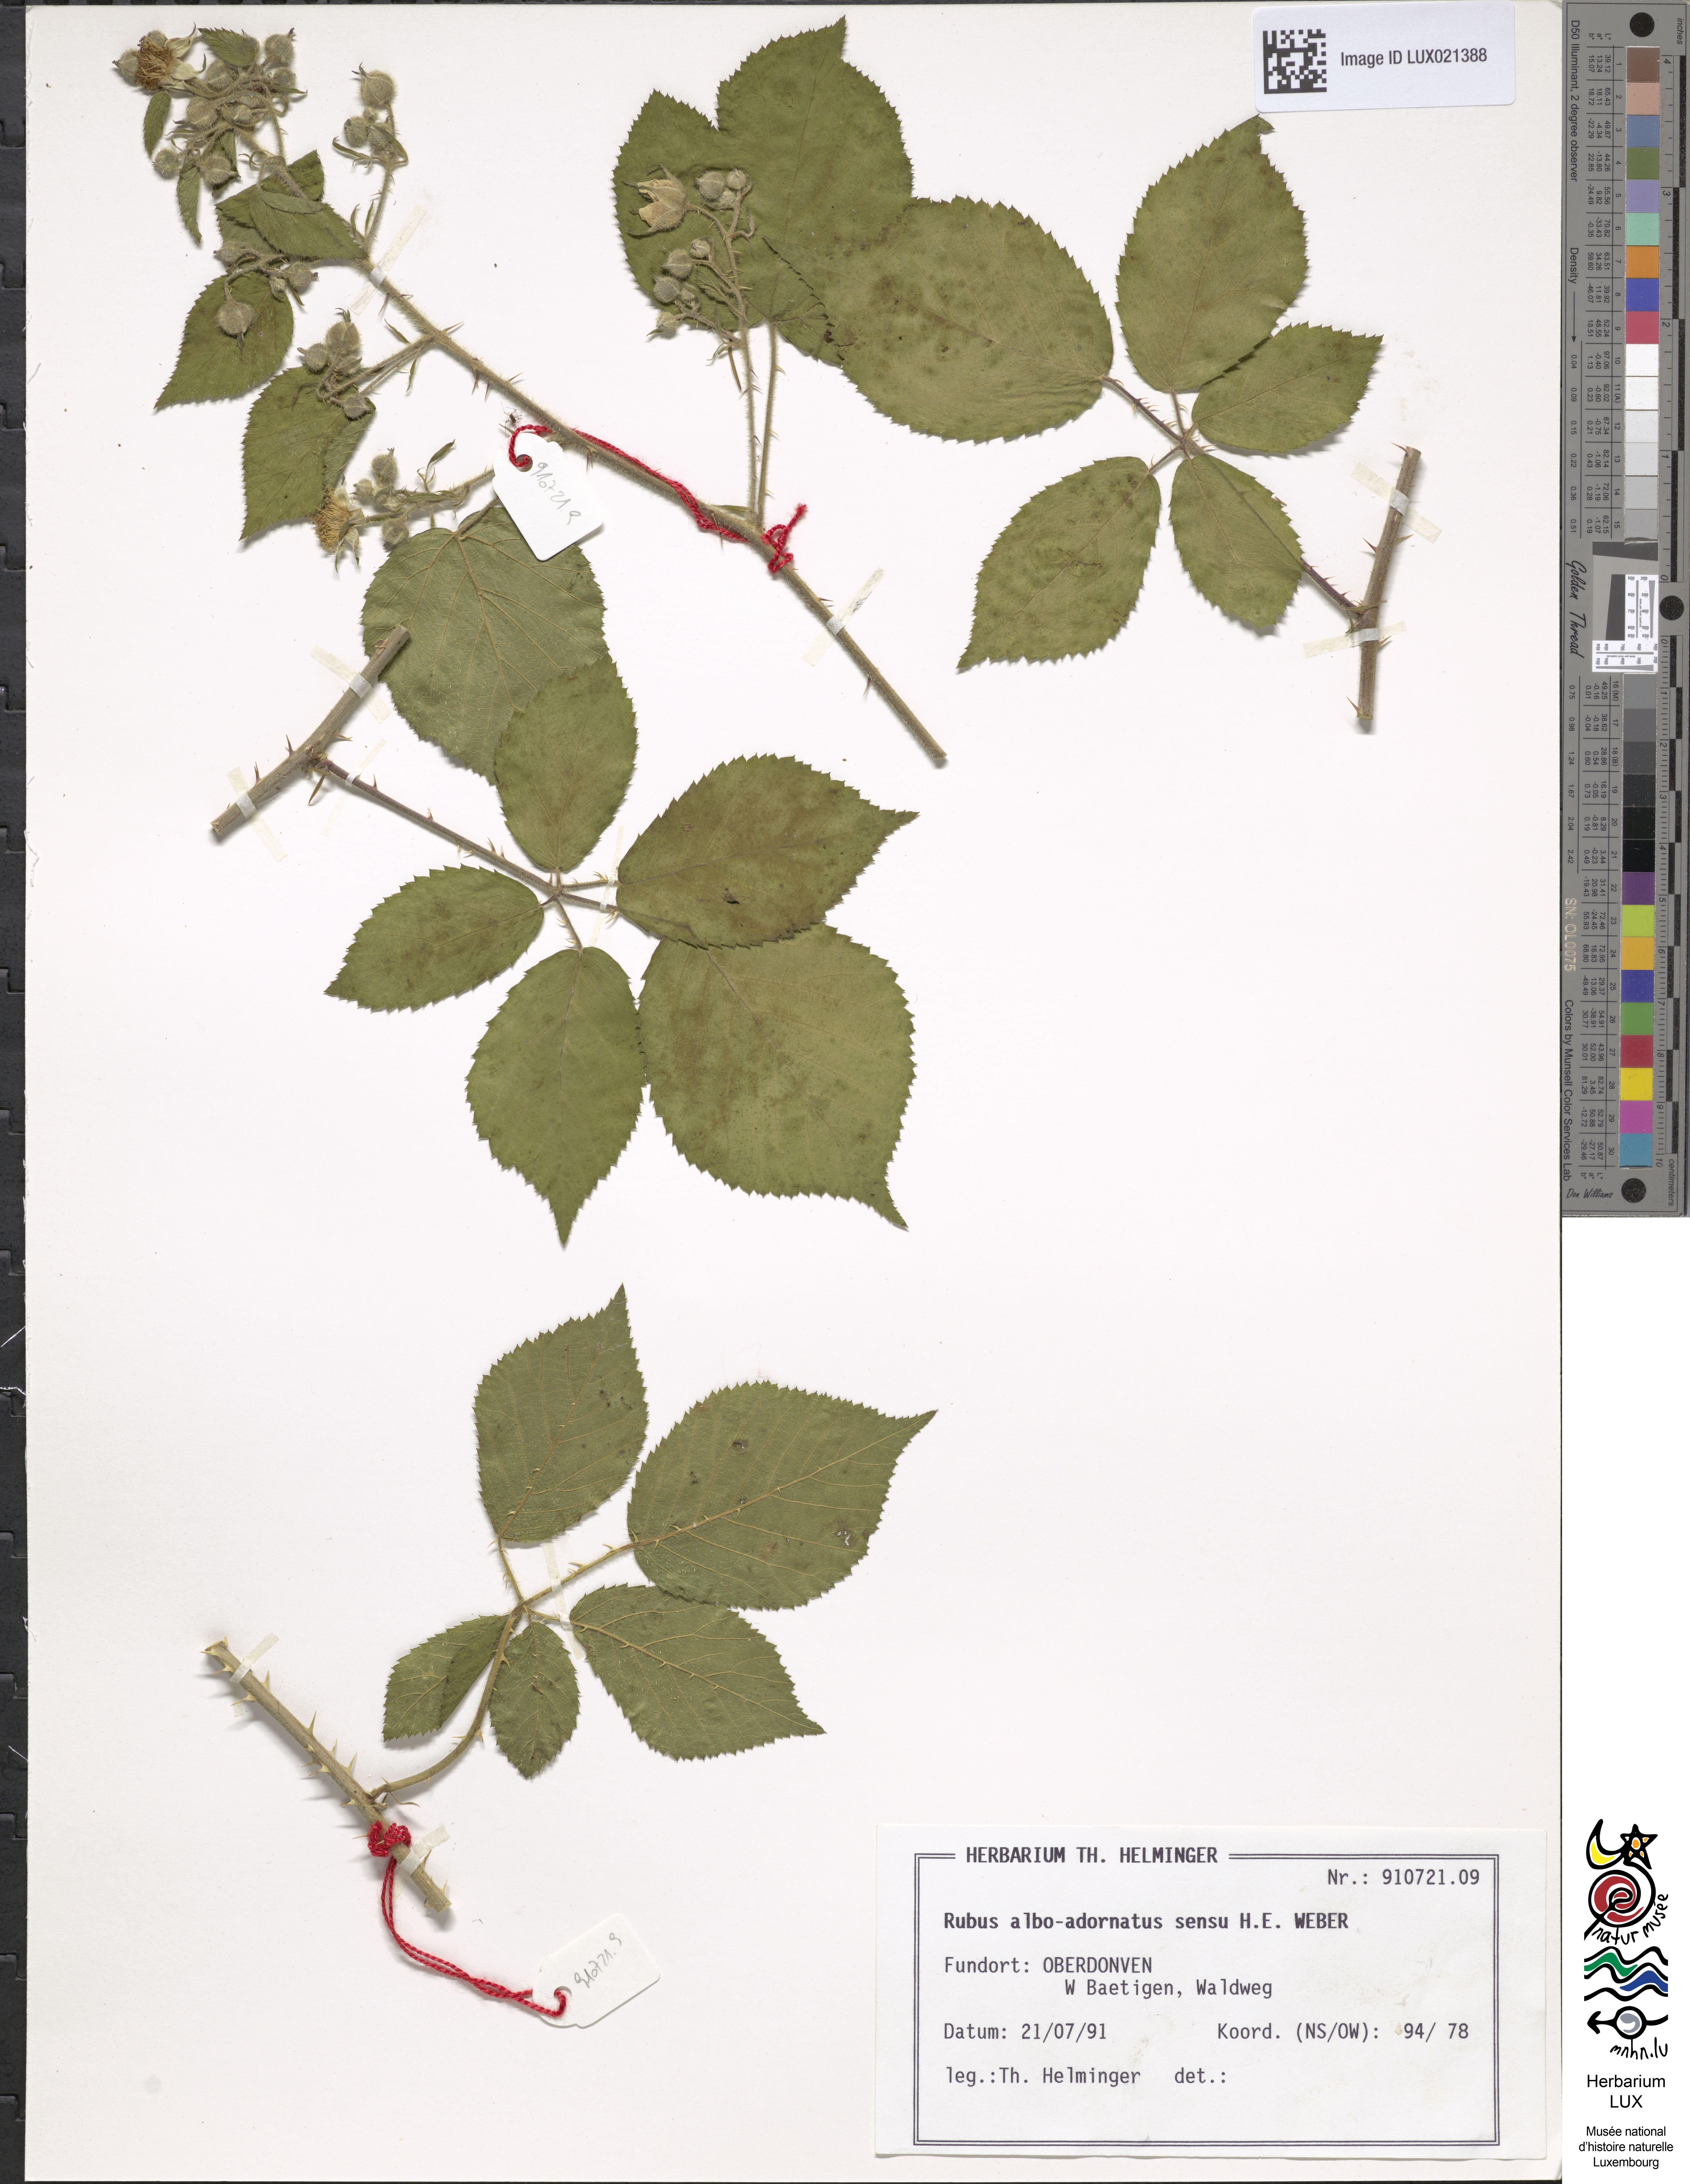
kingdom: Plantae
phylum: Tracheophyta
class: Magnoliopsida
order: Rosales
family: Rosaceae
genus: Rubus
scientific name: Rubus
